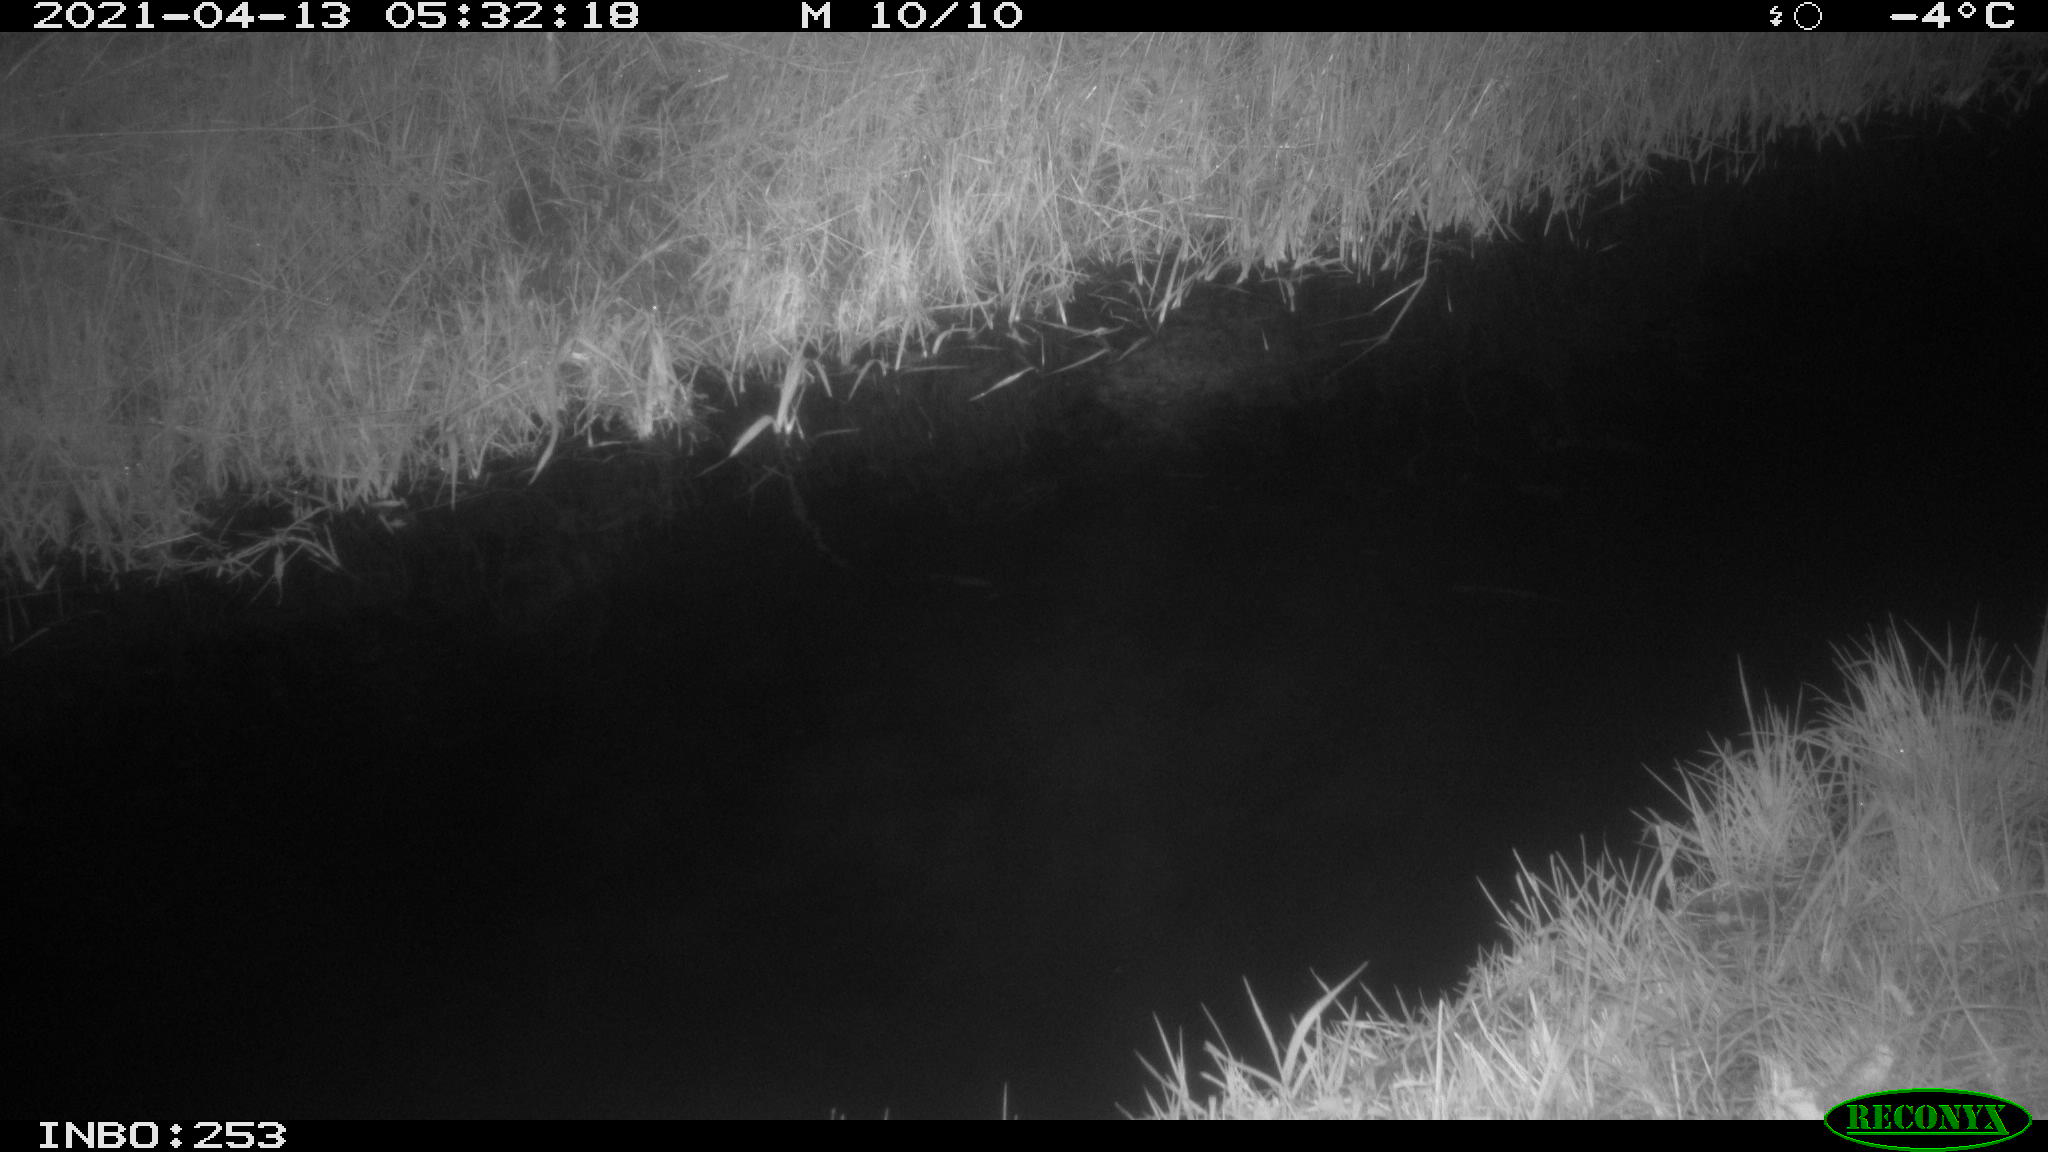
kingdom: Animalia
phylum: Chordata
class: Aves
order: Anseriformes
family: Anatidae
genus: Anas
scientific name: Anas platyrhynchos
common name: Mallard
